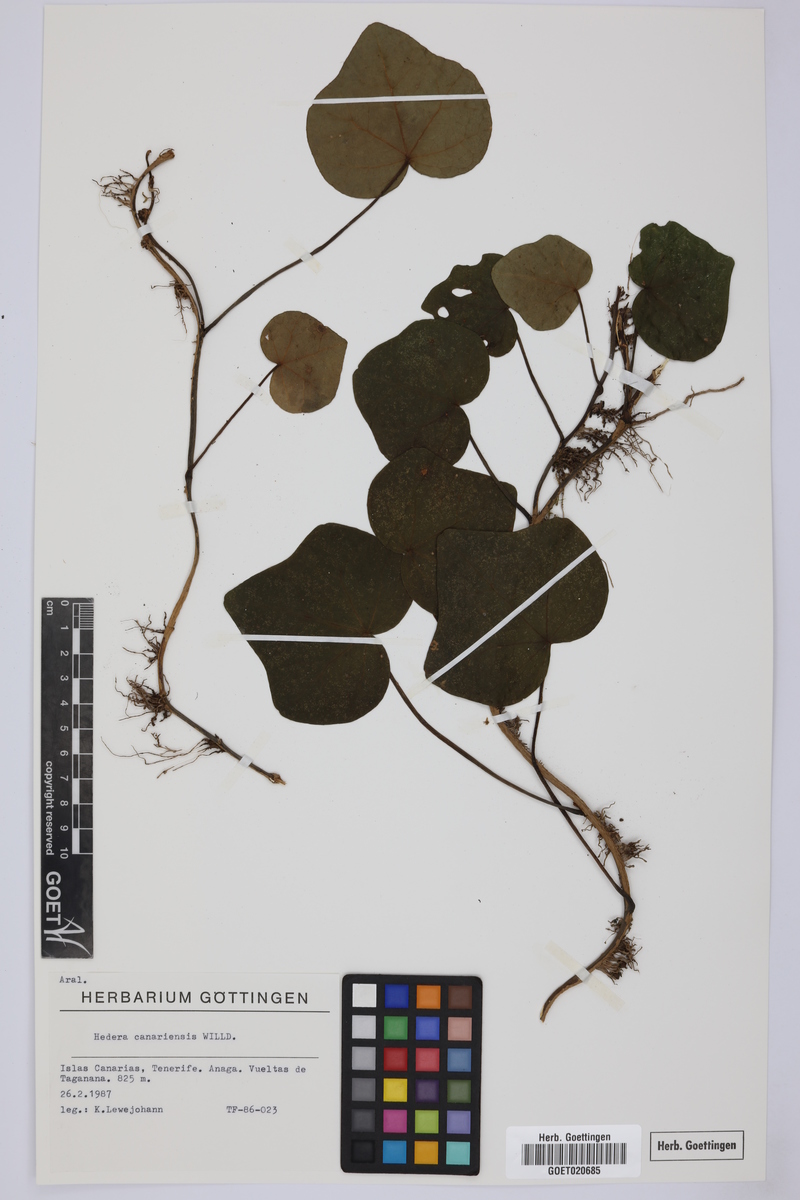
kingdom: Plantae
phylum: Tracheophyta
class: Magnoliopsida
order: Apiales
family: Araliaceae
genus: Hedera
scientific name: Hedera canariensis
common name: Madeira ivy
